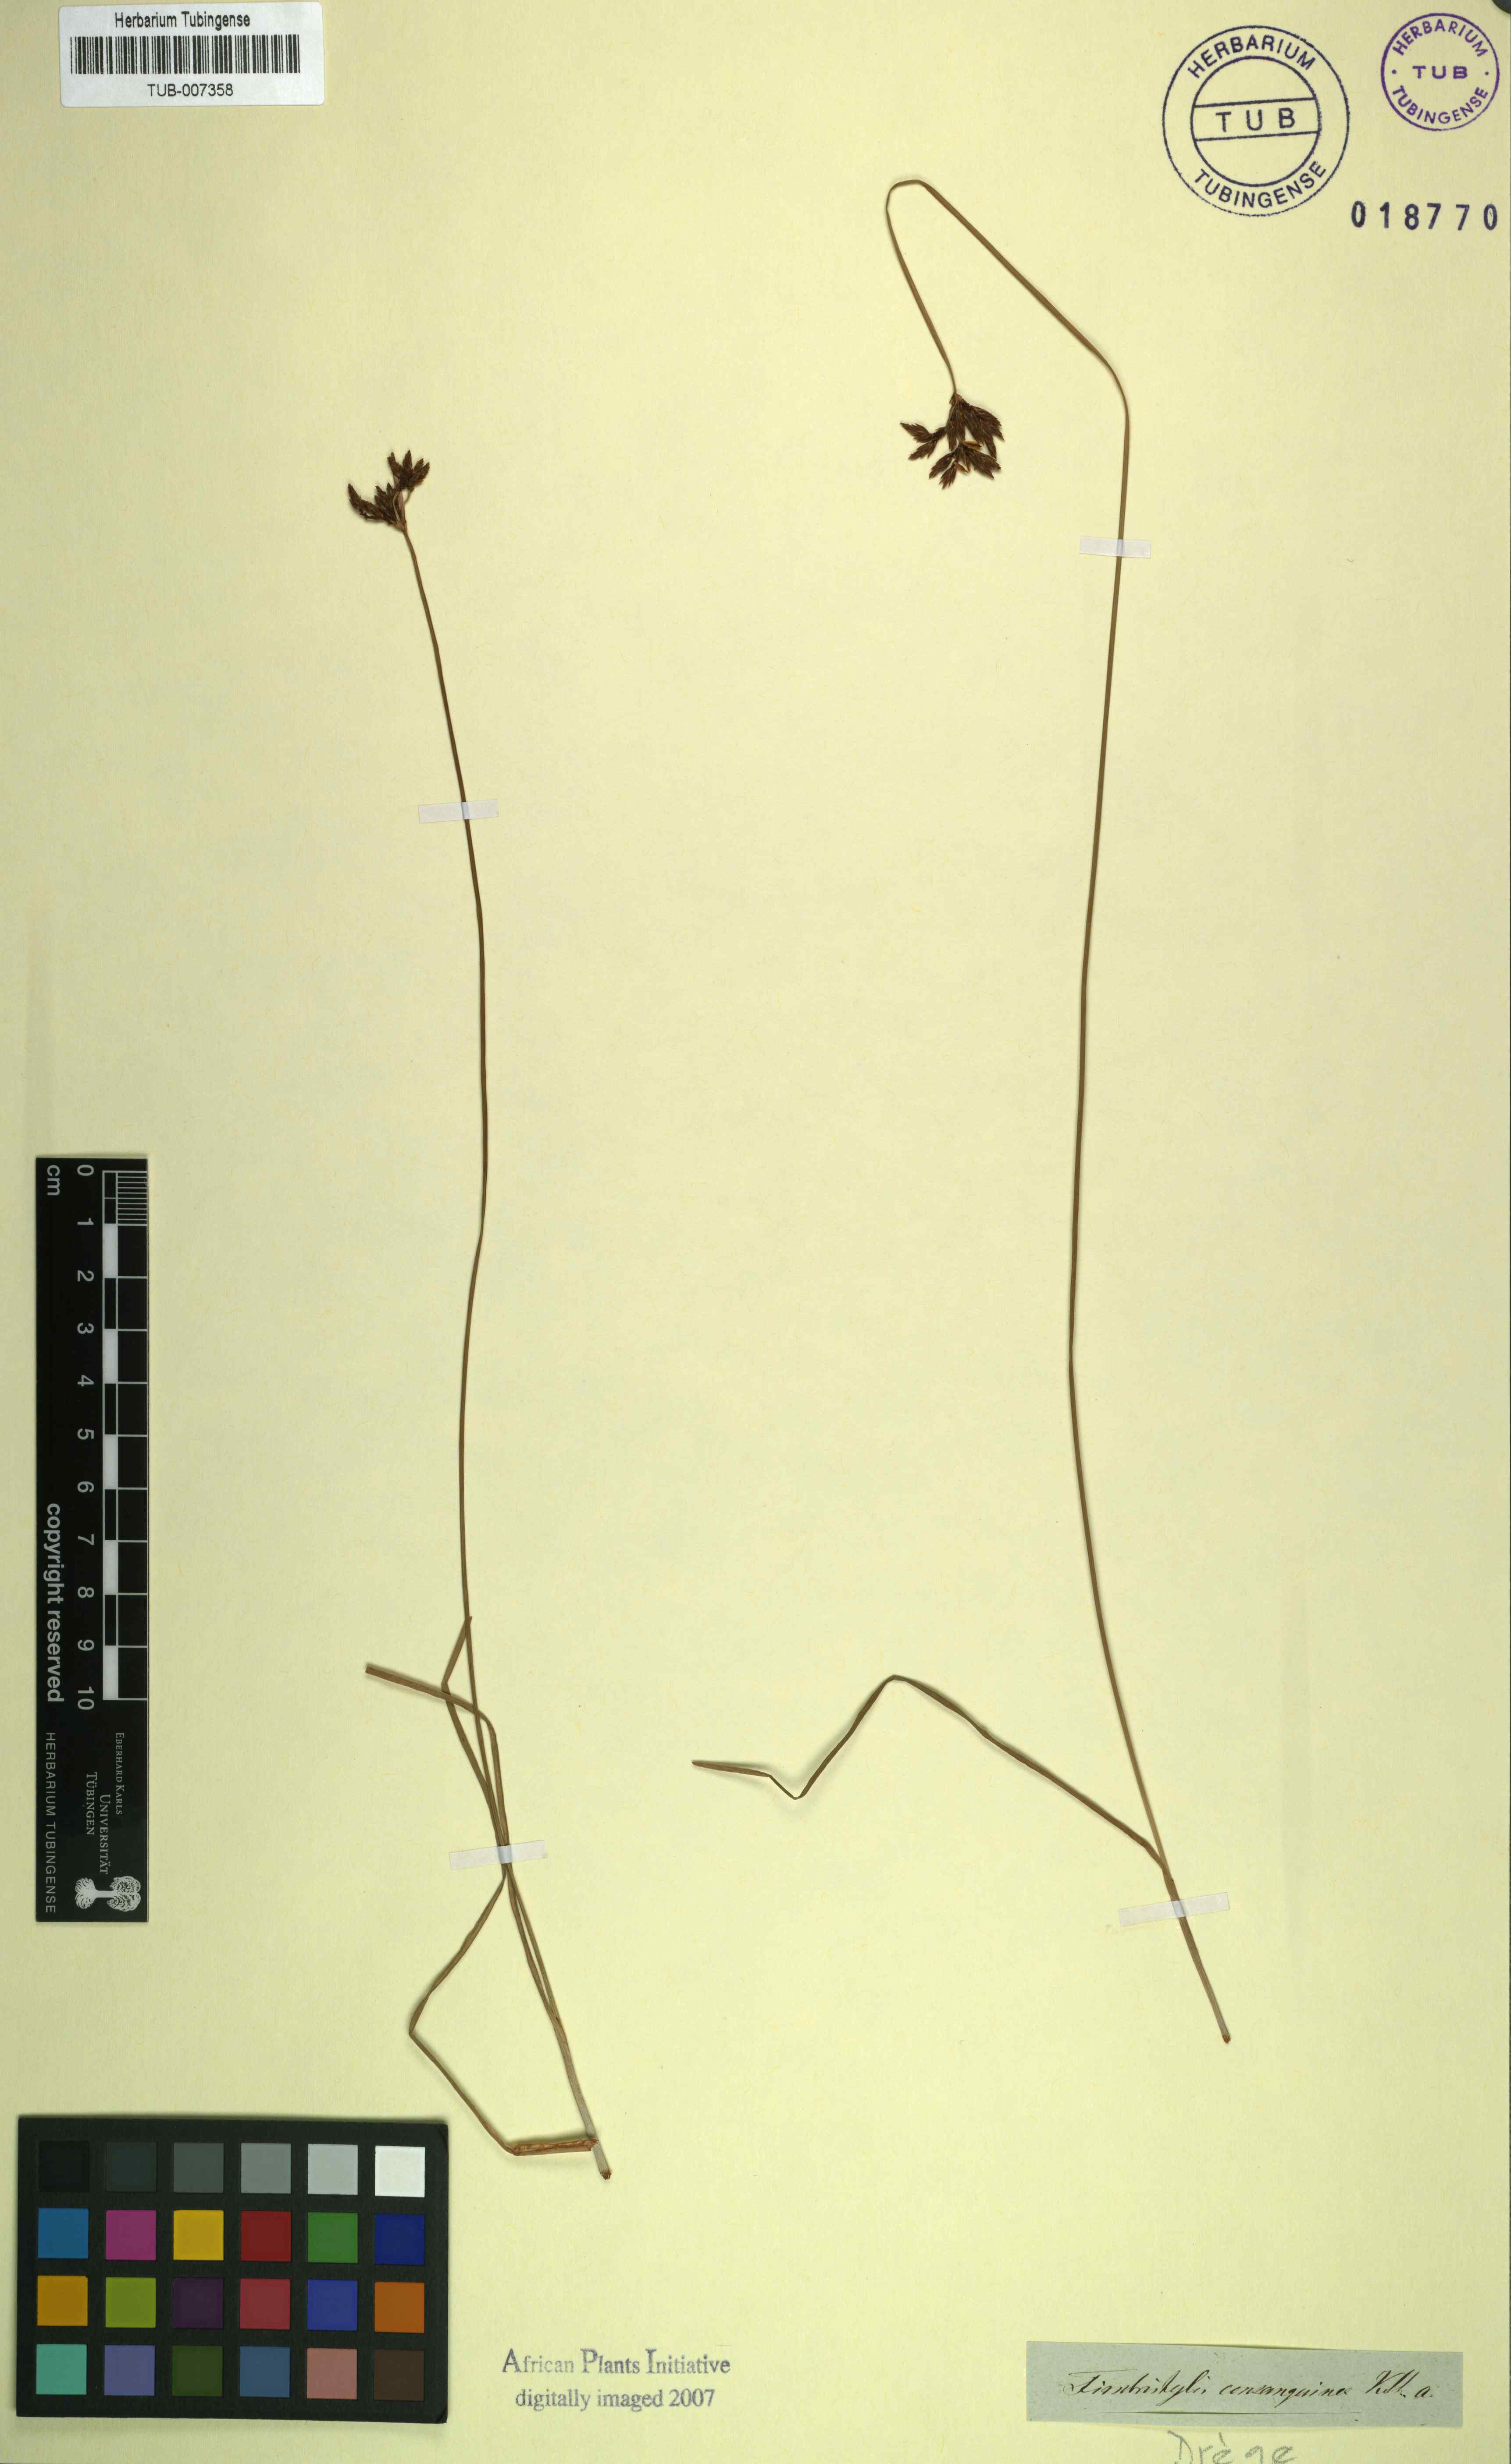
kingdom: Plantae
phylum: Tracheophyta
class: Liliopsida
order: Poales
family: Cyperaceae
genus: Fimbristylis
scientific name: Fimbristylis complanata
